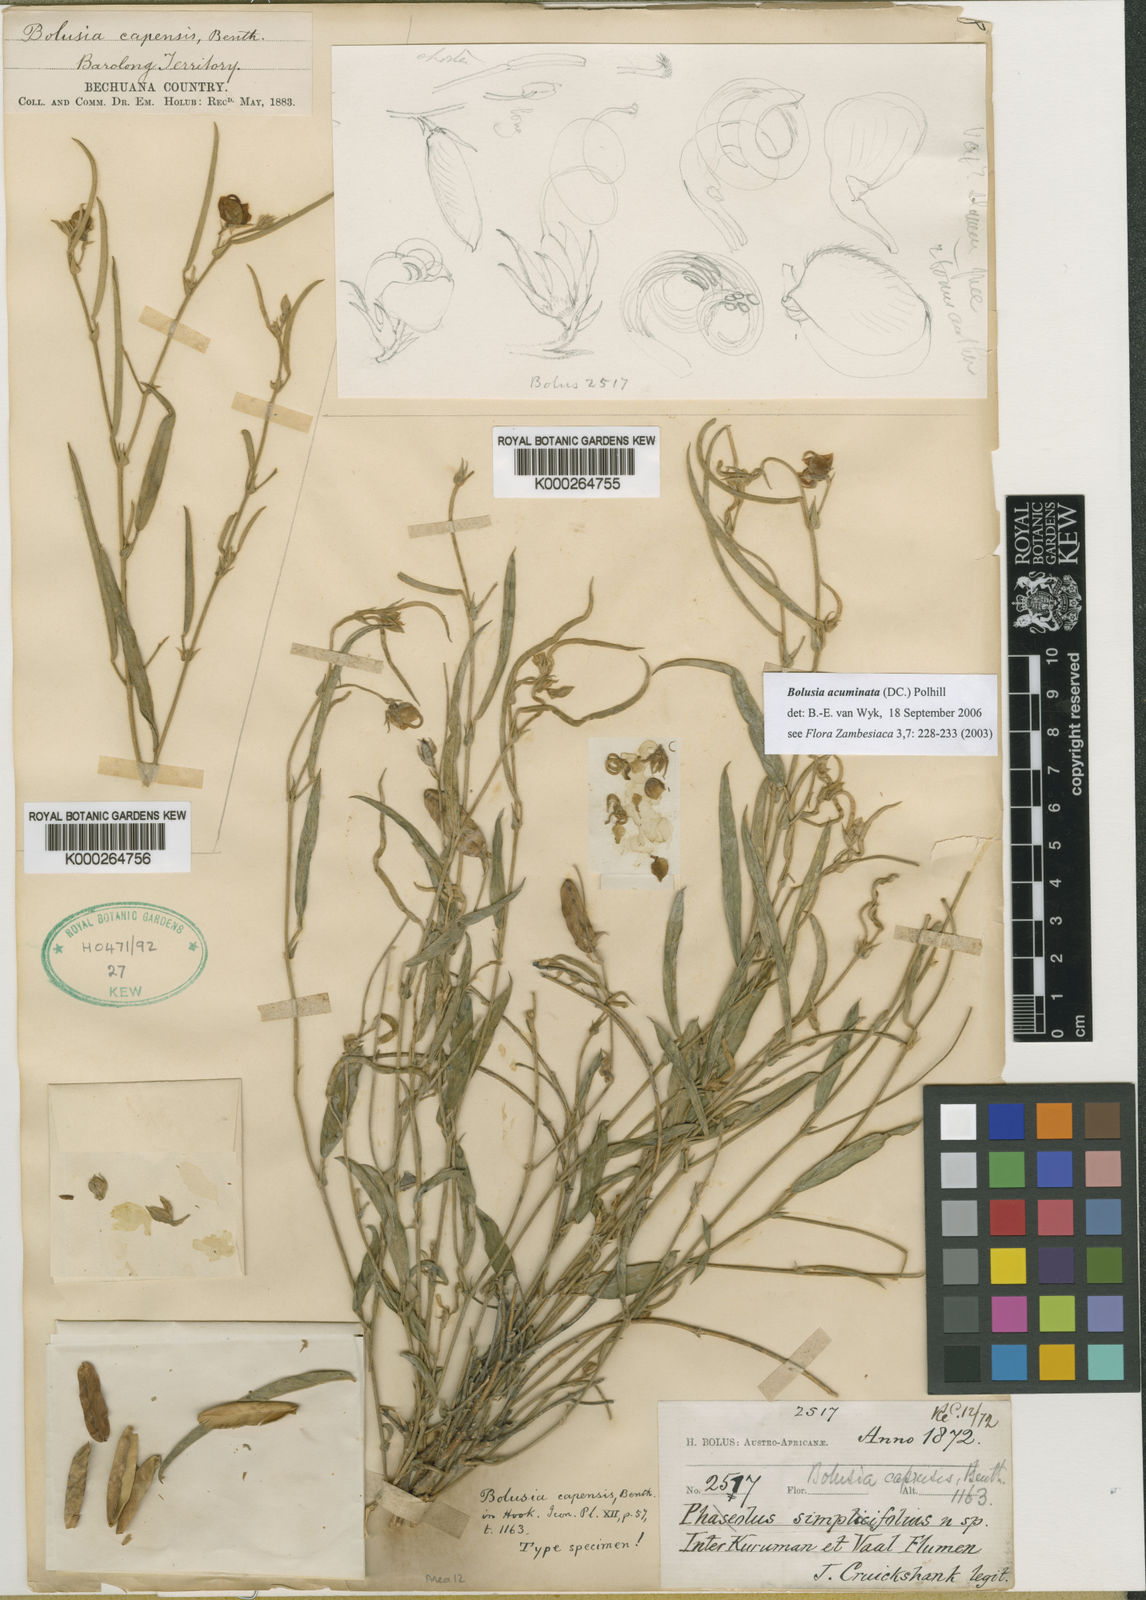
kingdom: Plantae
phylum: Tracheophyta
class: Magnoliopsida
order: Fabales
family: Fabaceae
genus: Bolusia
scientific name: Bolusia acuminata
